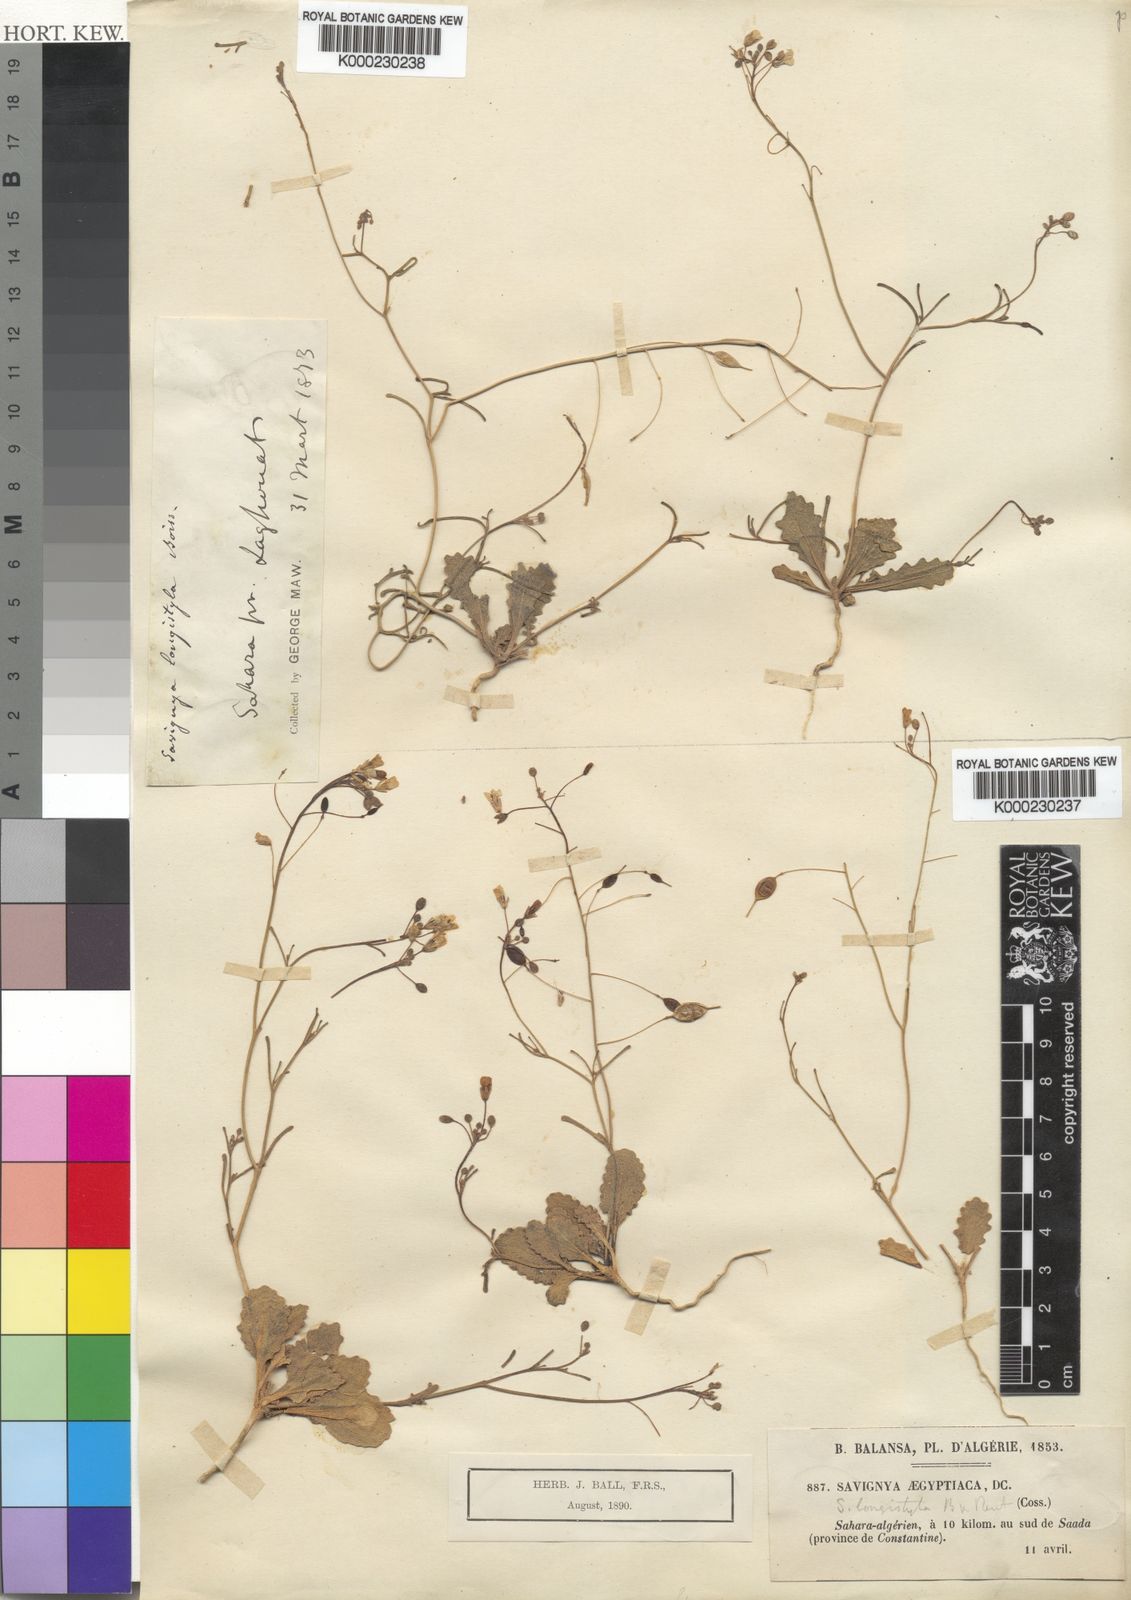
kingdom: Plantae
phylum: Tracheophyta
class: Magnoliopsida
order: Brassicales
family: Brassicaceae
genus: Savignya
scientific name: Savignya parviflora
